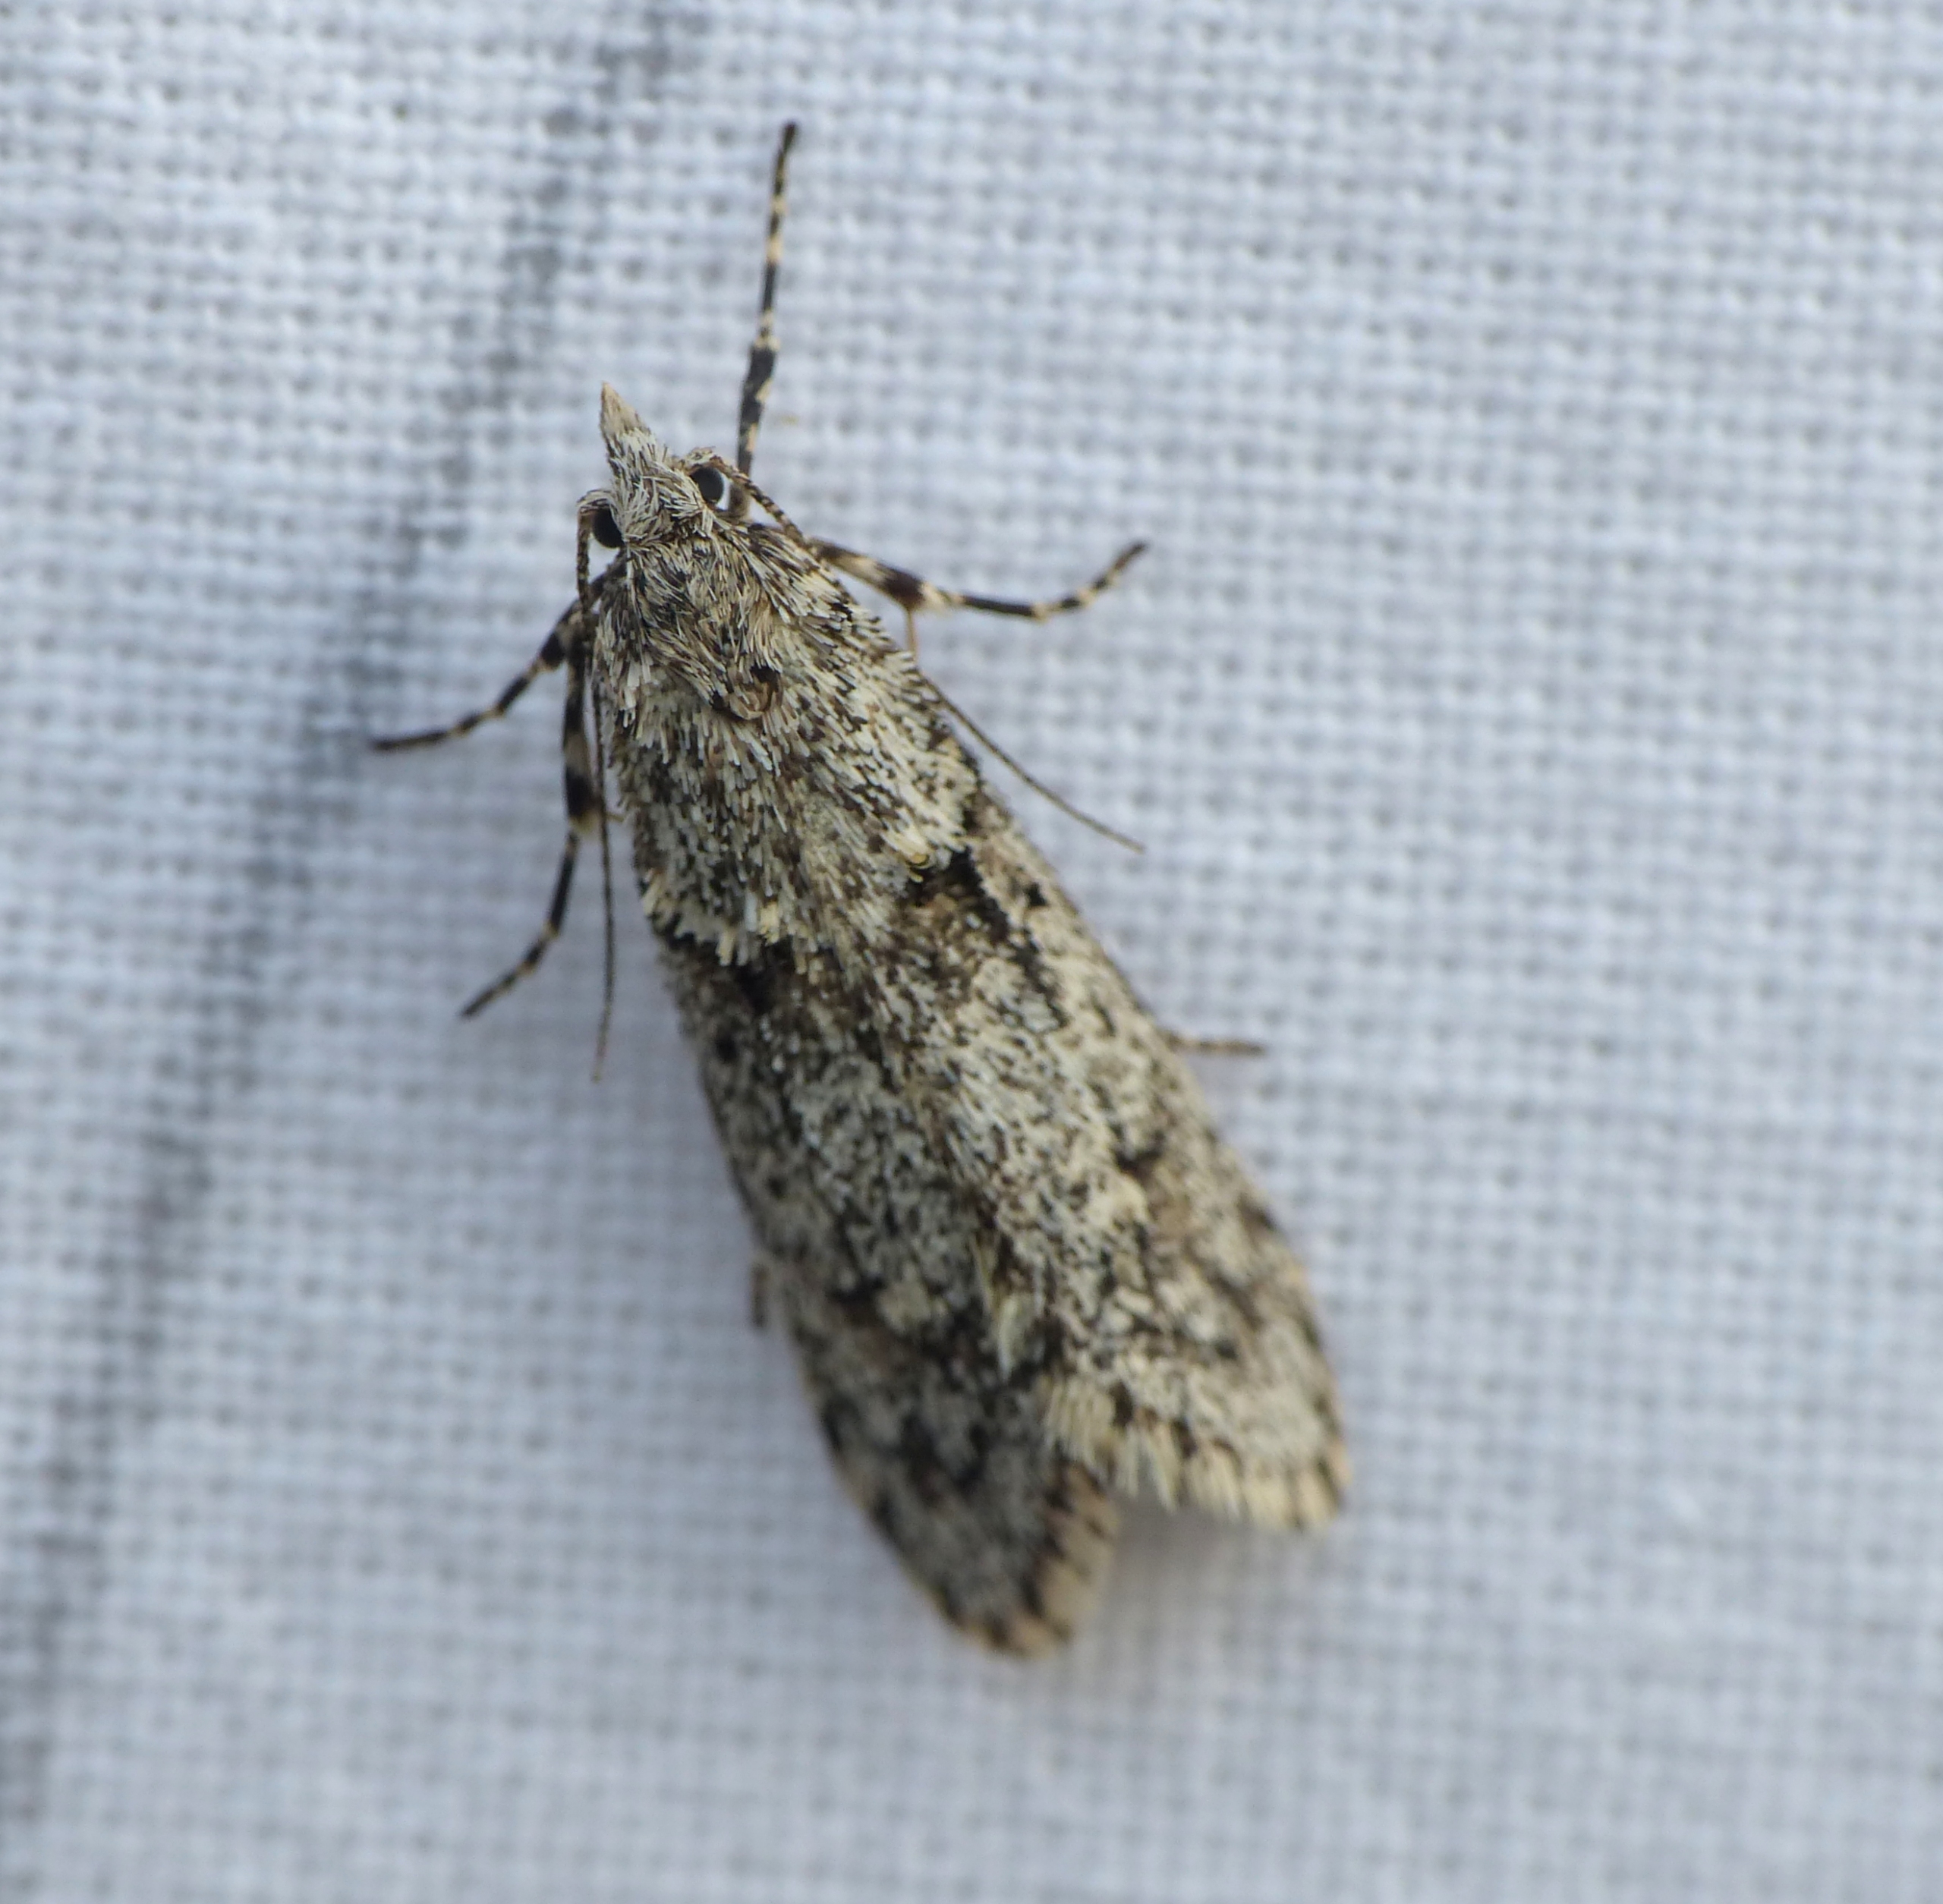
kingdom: Animalia
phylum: Arthropoda
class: Insecta
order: Lepidoptera
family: Lypusidae
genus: Diurnea
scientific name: Diurnea fagella
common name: Bøgeprydvinge
